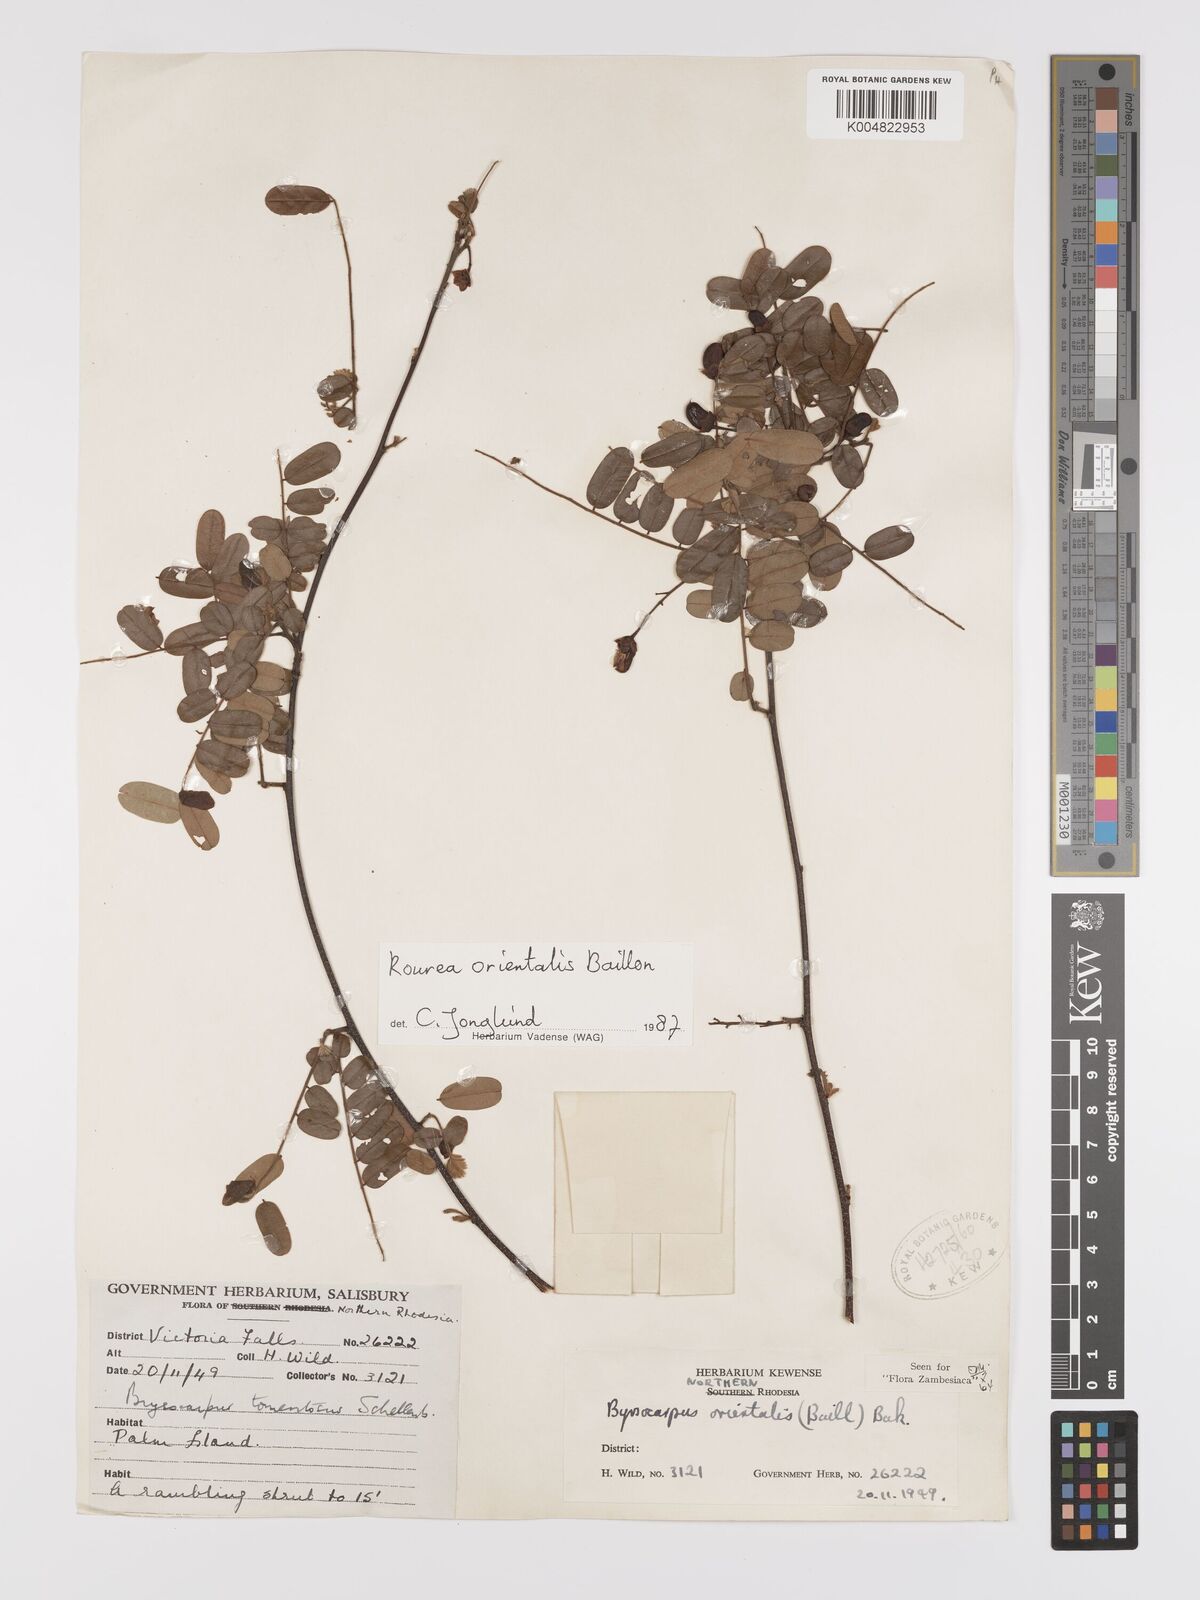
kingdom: Plantae
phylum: Tracheophyta
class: Magnoliopsida
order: Oxalidales
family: Connaraceae
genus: Rourea
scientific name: Rourea orientalis
